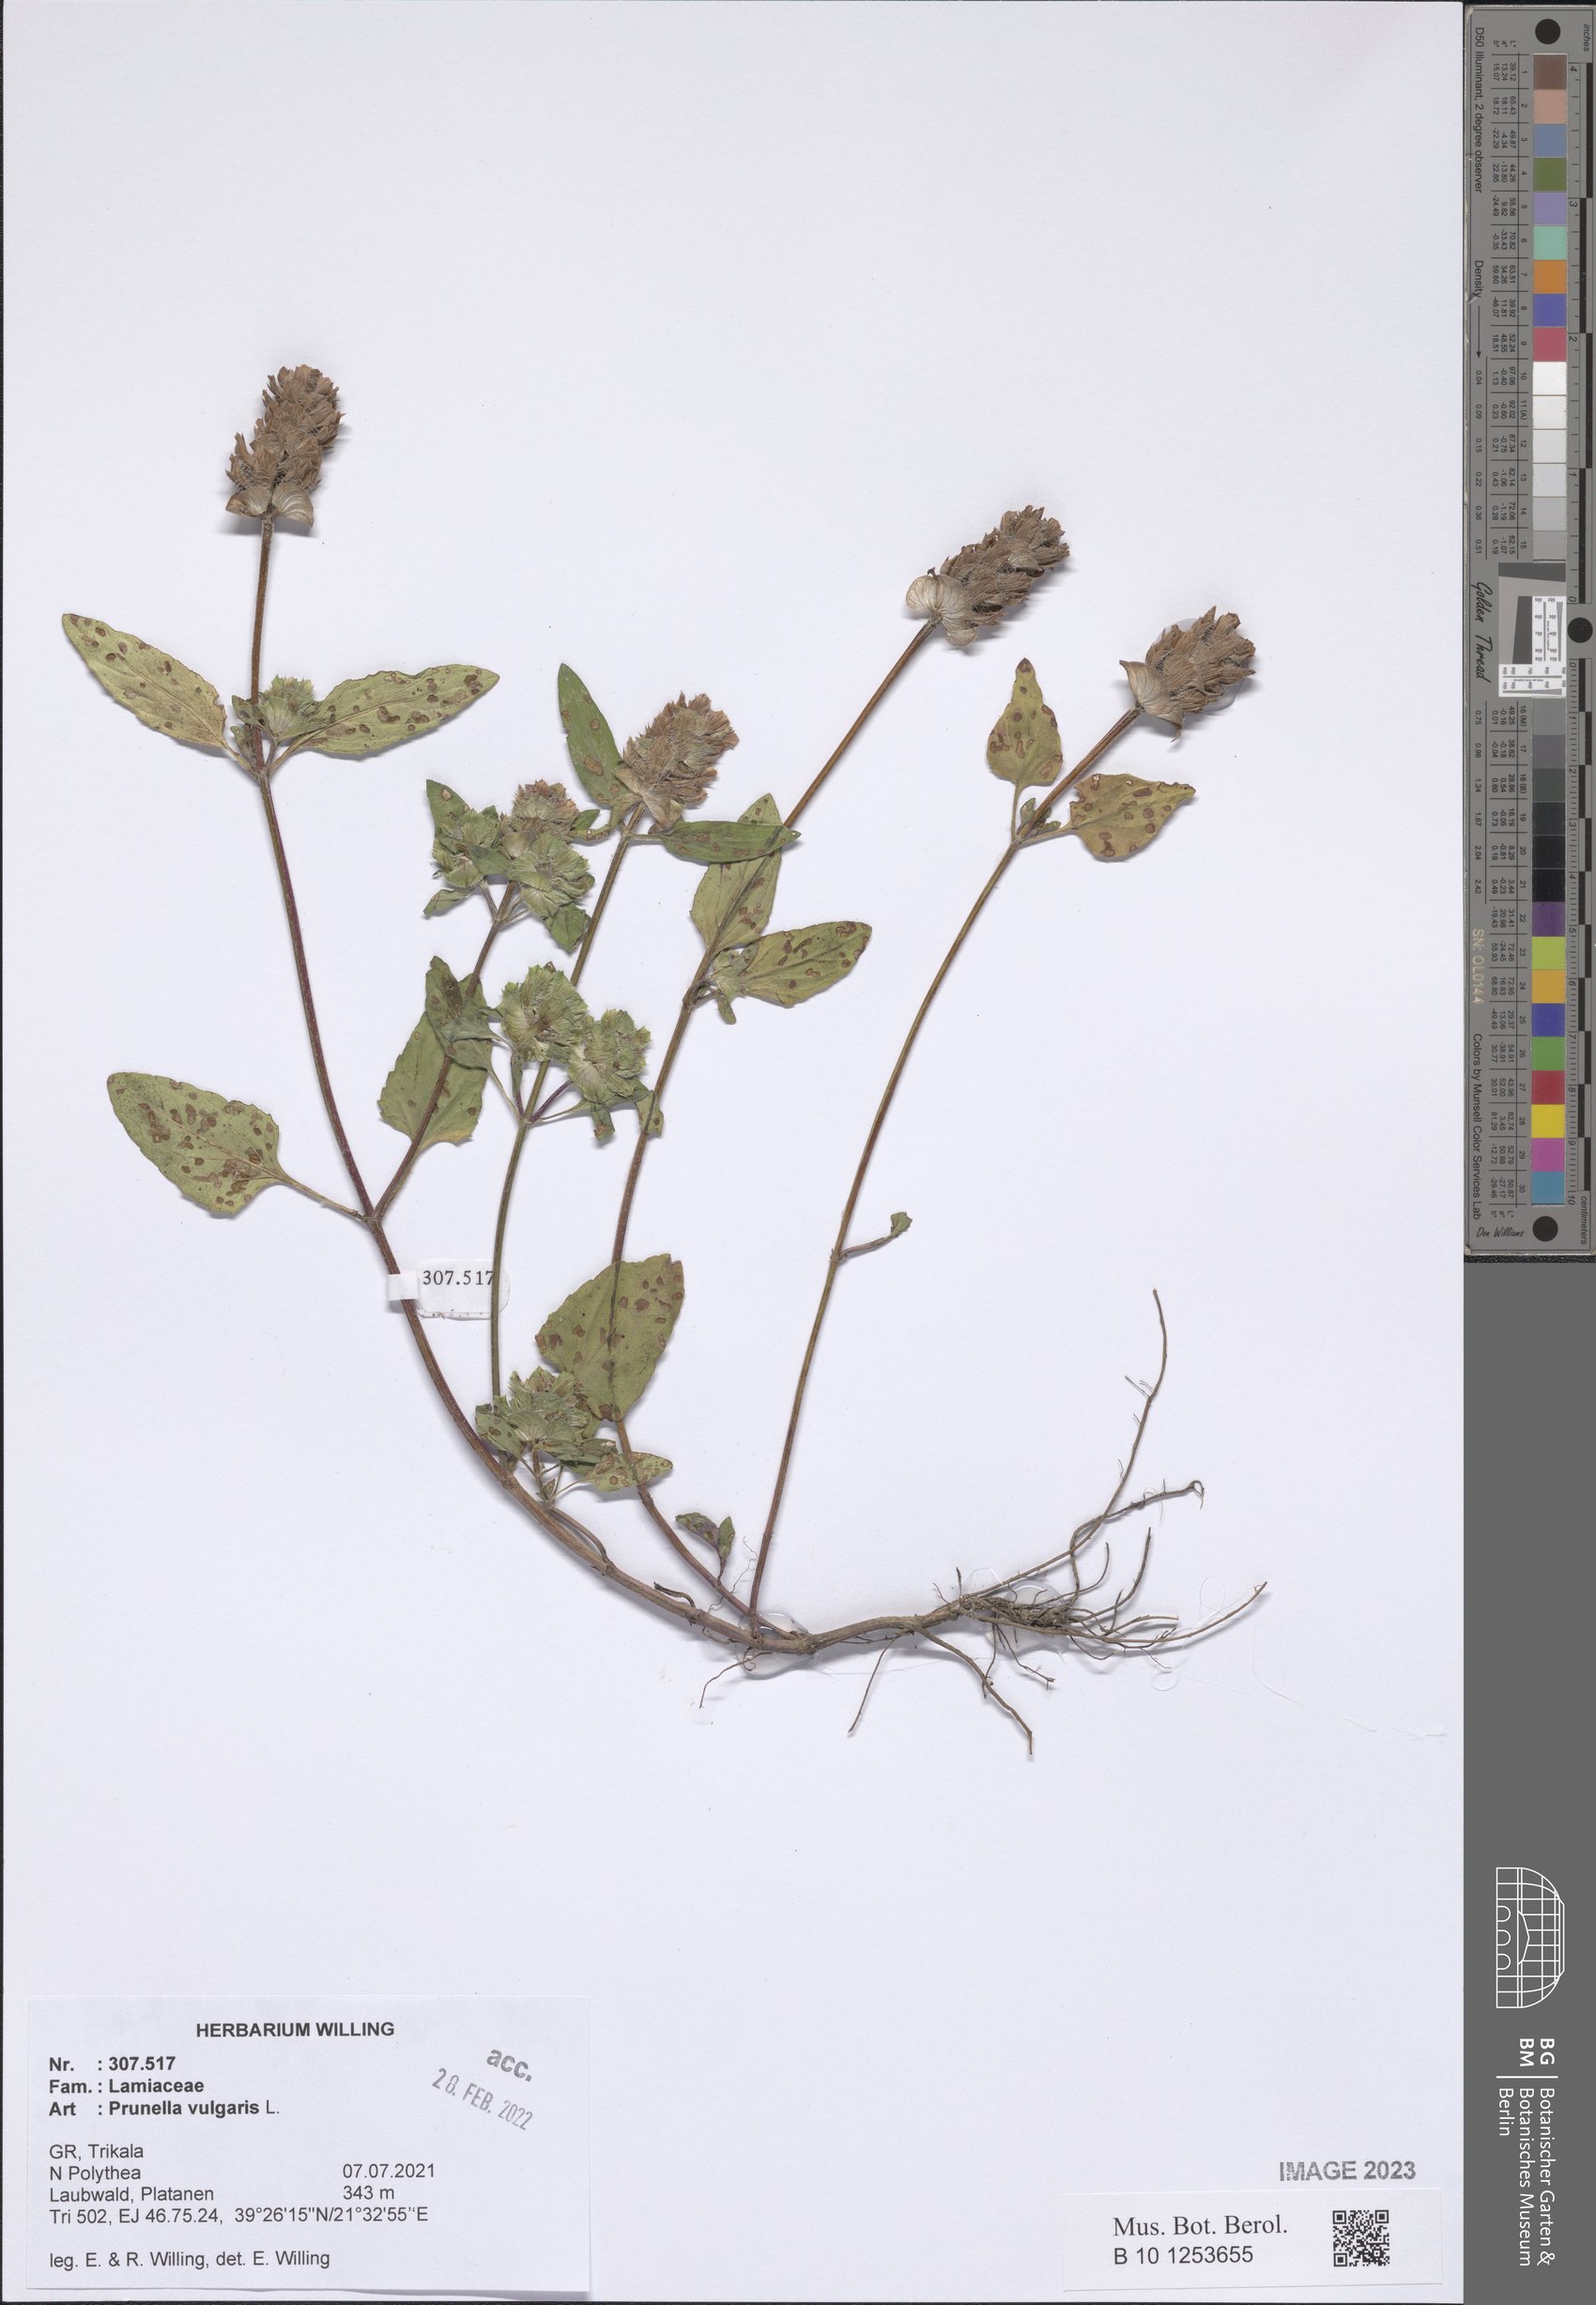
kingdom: Plantae
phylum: Tracheophyta
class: Magnoliopsida
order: Lamiales
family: Lamiaceae
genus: Prunella
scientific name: Prunella vulgaris
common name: Heal-all
